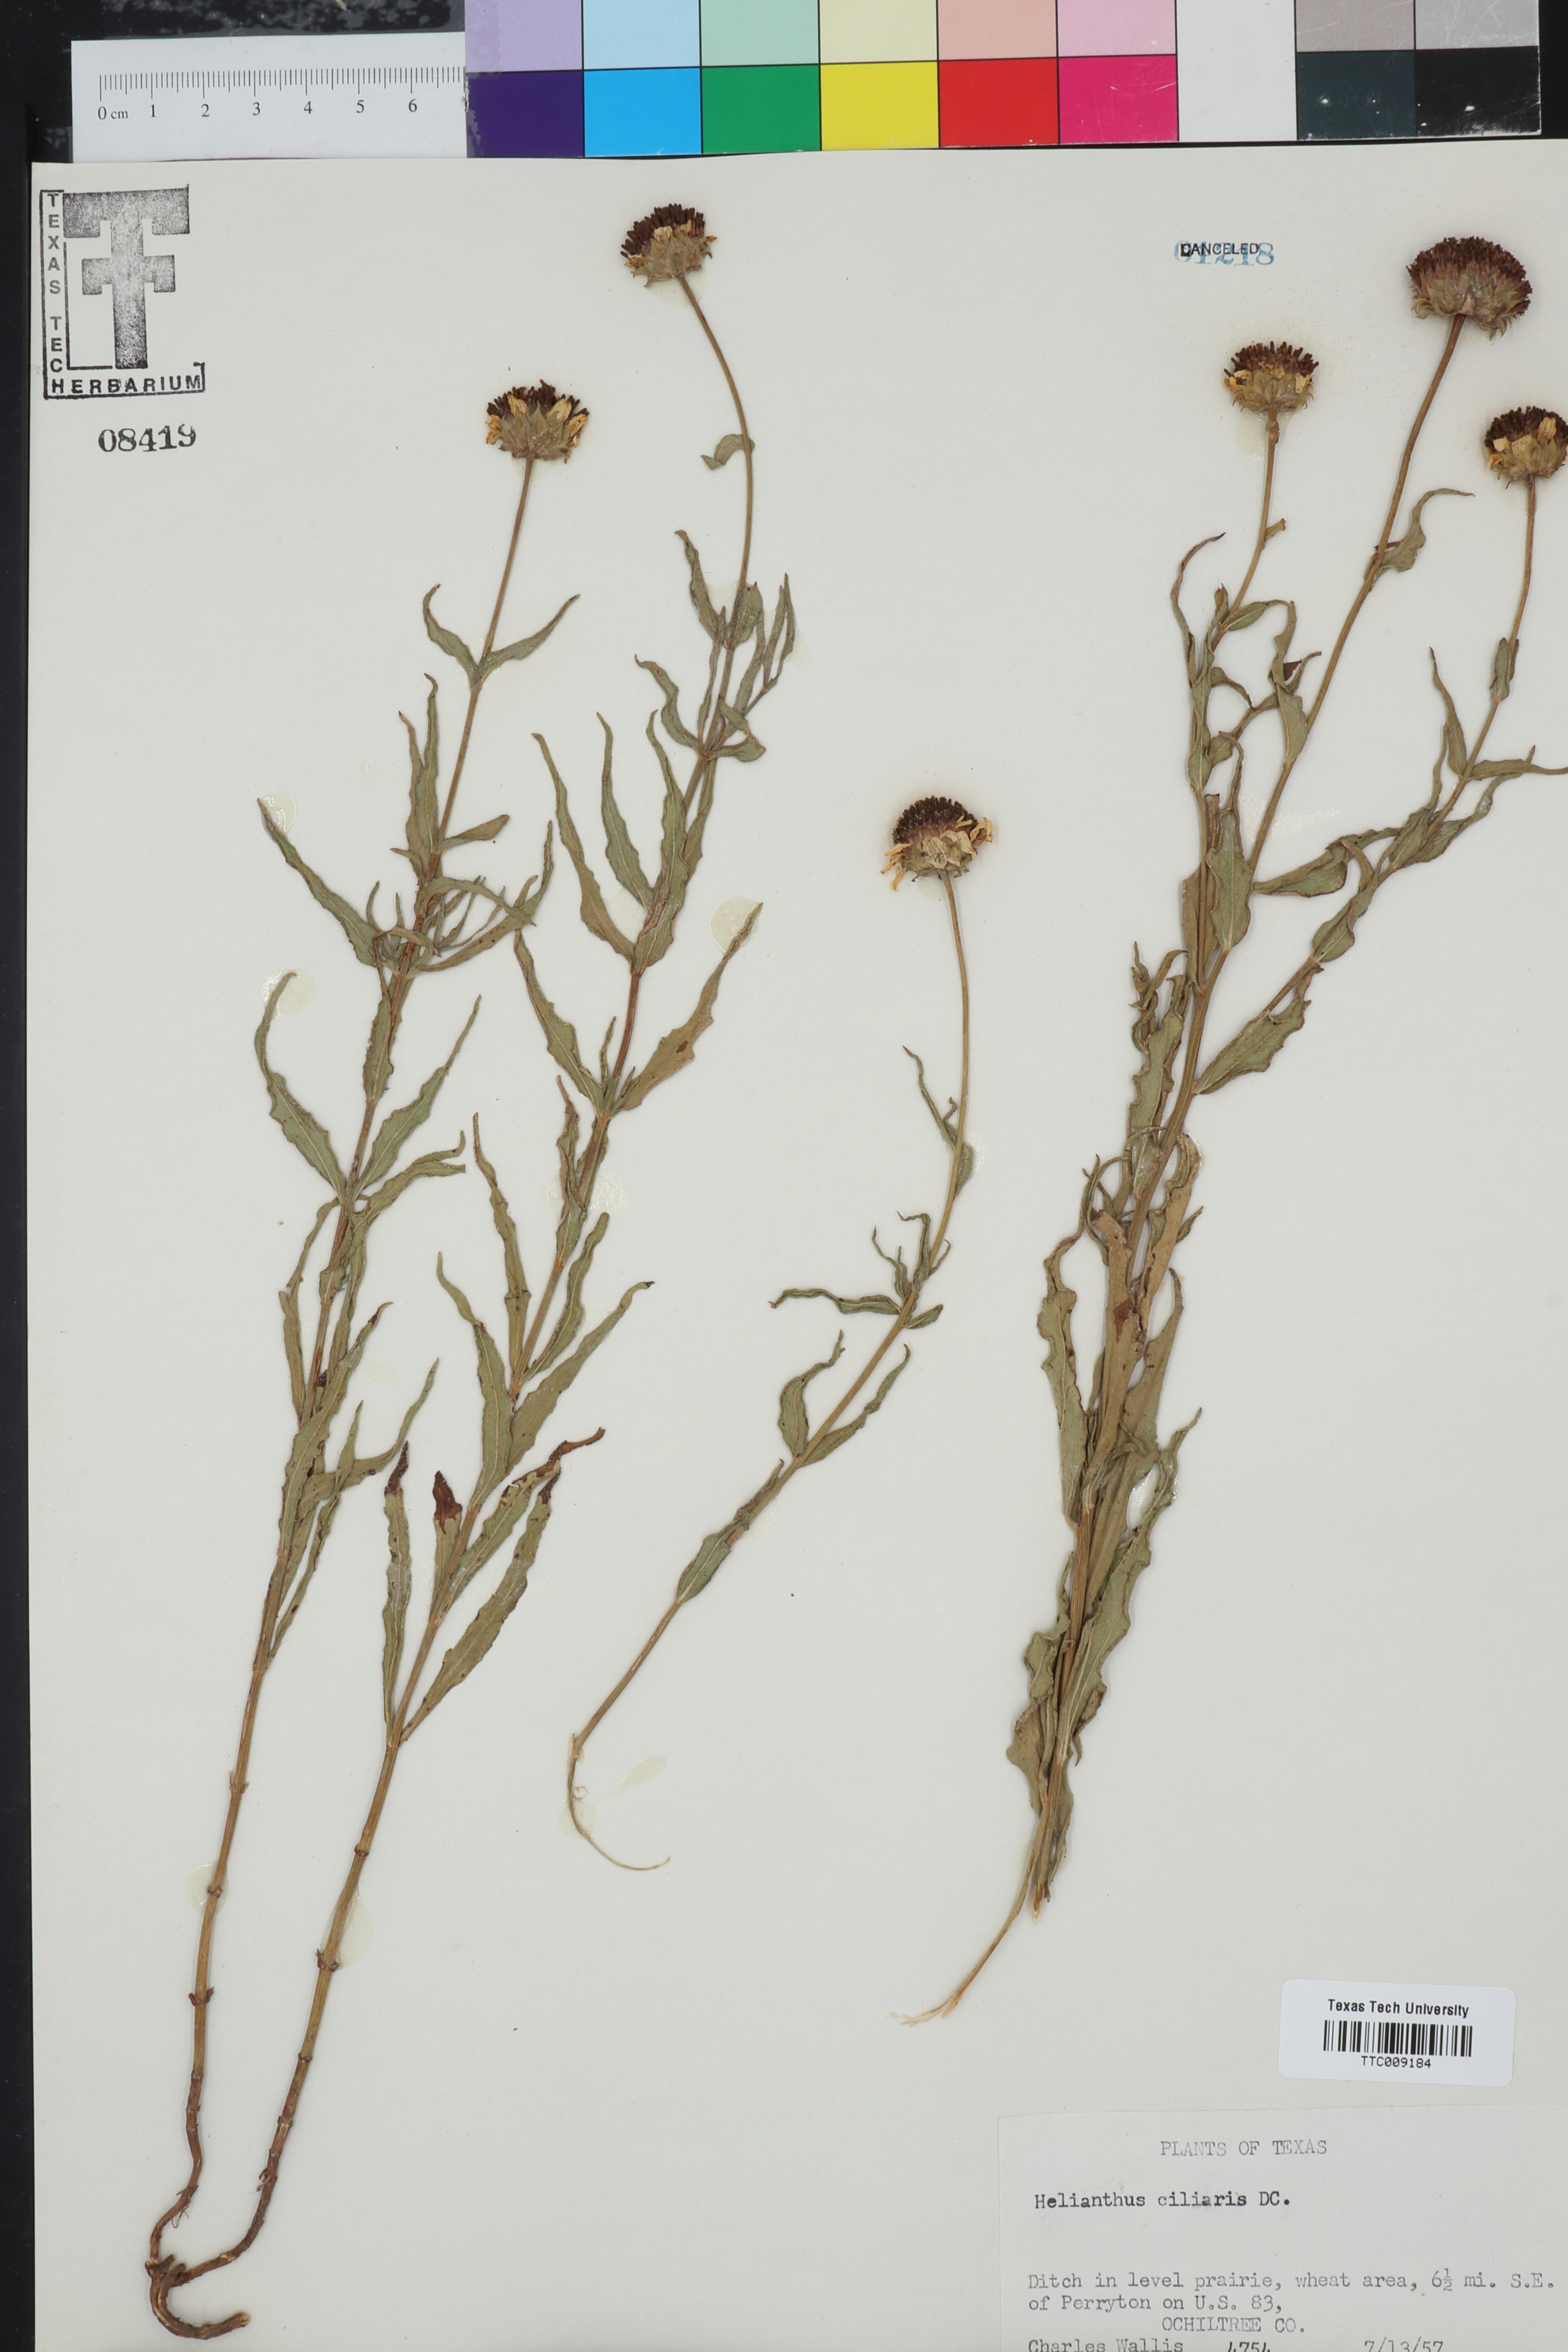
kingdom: Plantae
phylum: Tracheophyta
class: Magnoliopsida
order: Asterales
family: Asteraceae
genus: Helianthus
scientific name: Helianthus ciliaris
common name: Texas blueweed
